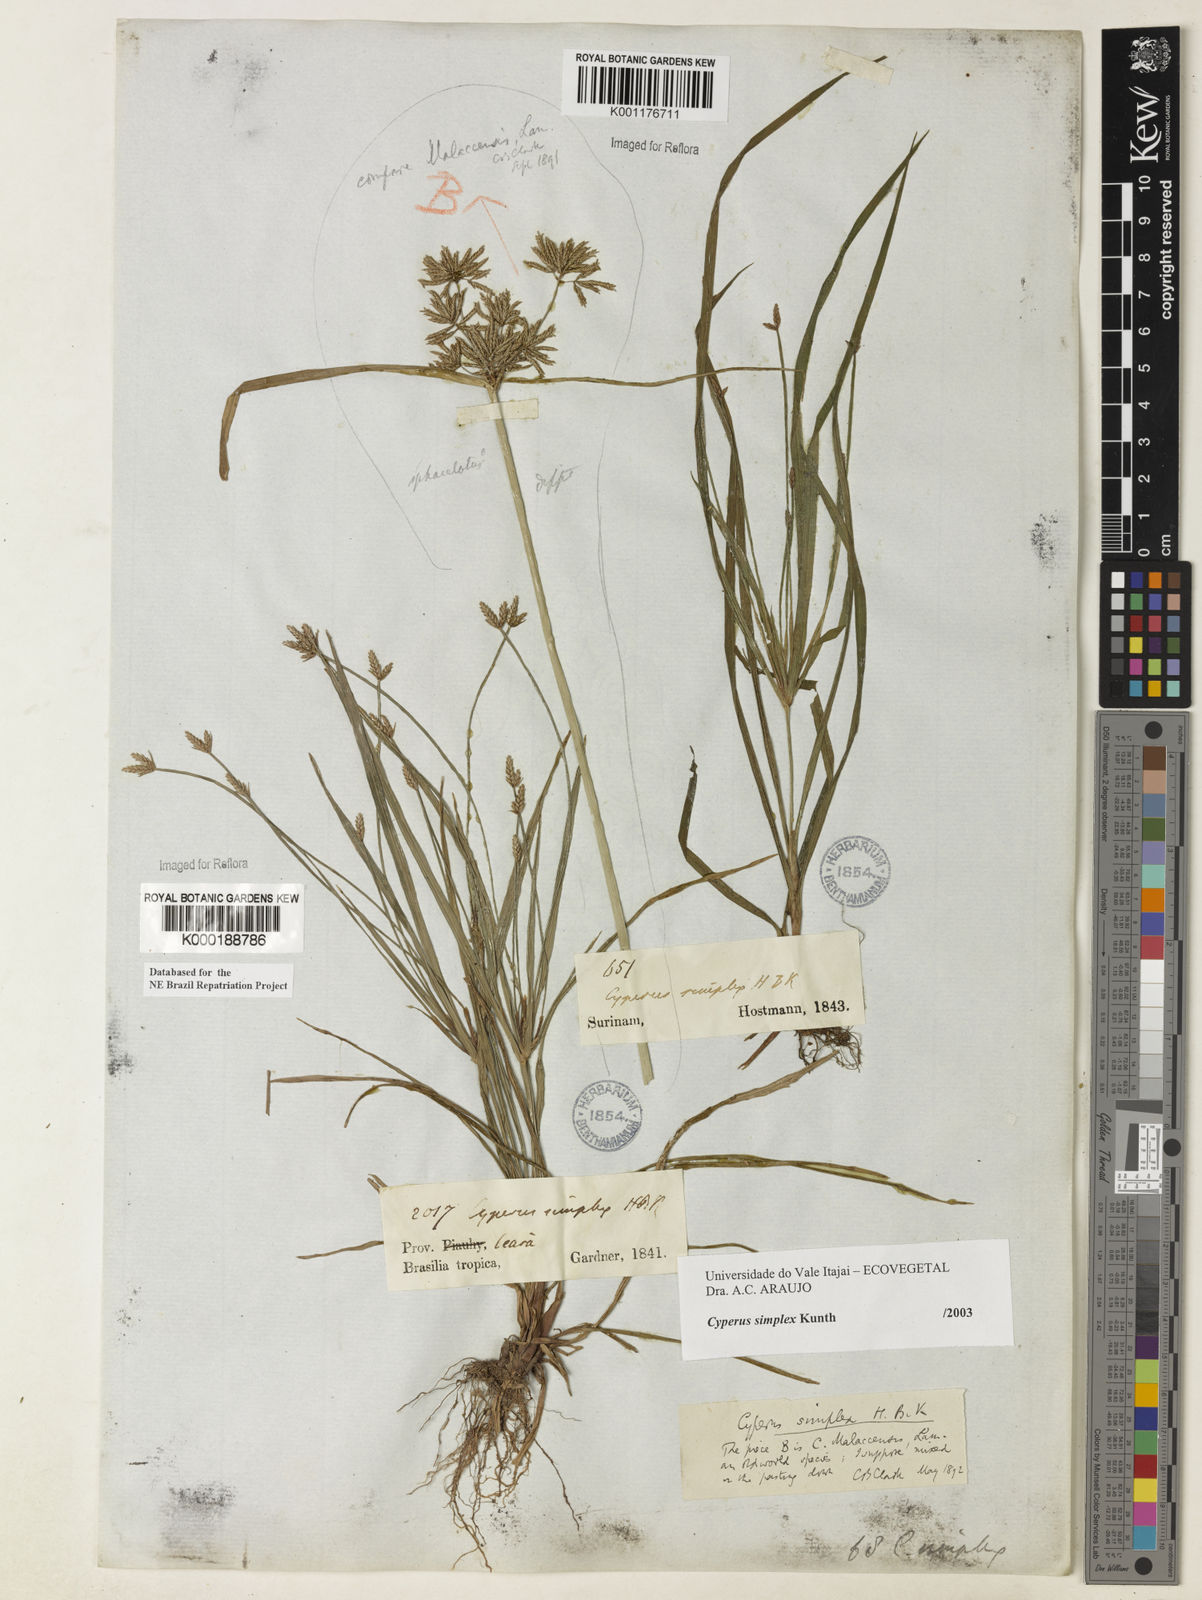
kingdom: Plantae
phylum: Tracheophyta
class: Liliopsida
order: Poales
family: Cyperaceae
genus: Cyperus
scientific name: Cyperus simplex
